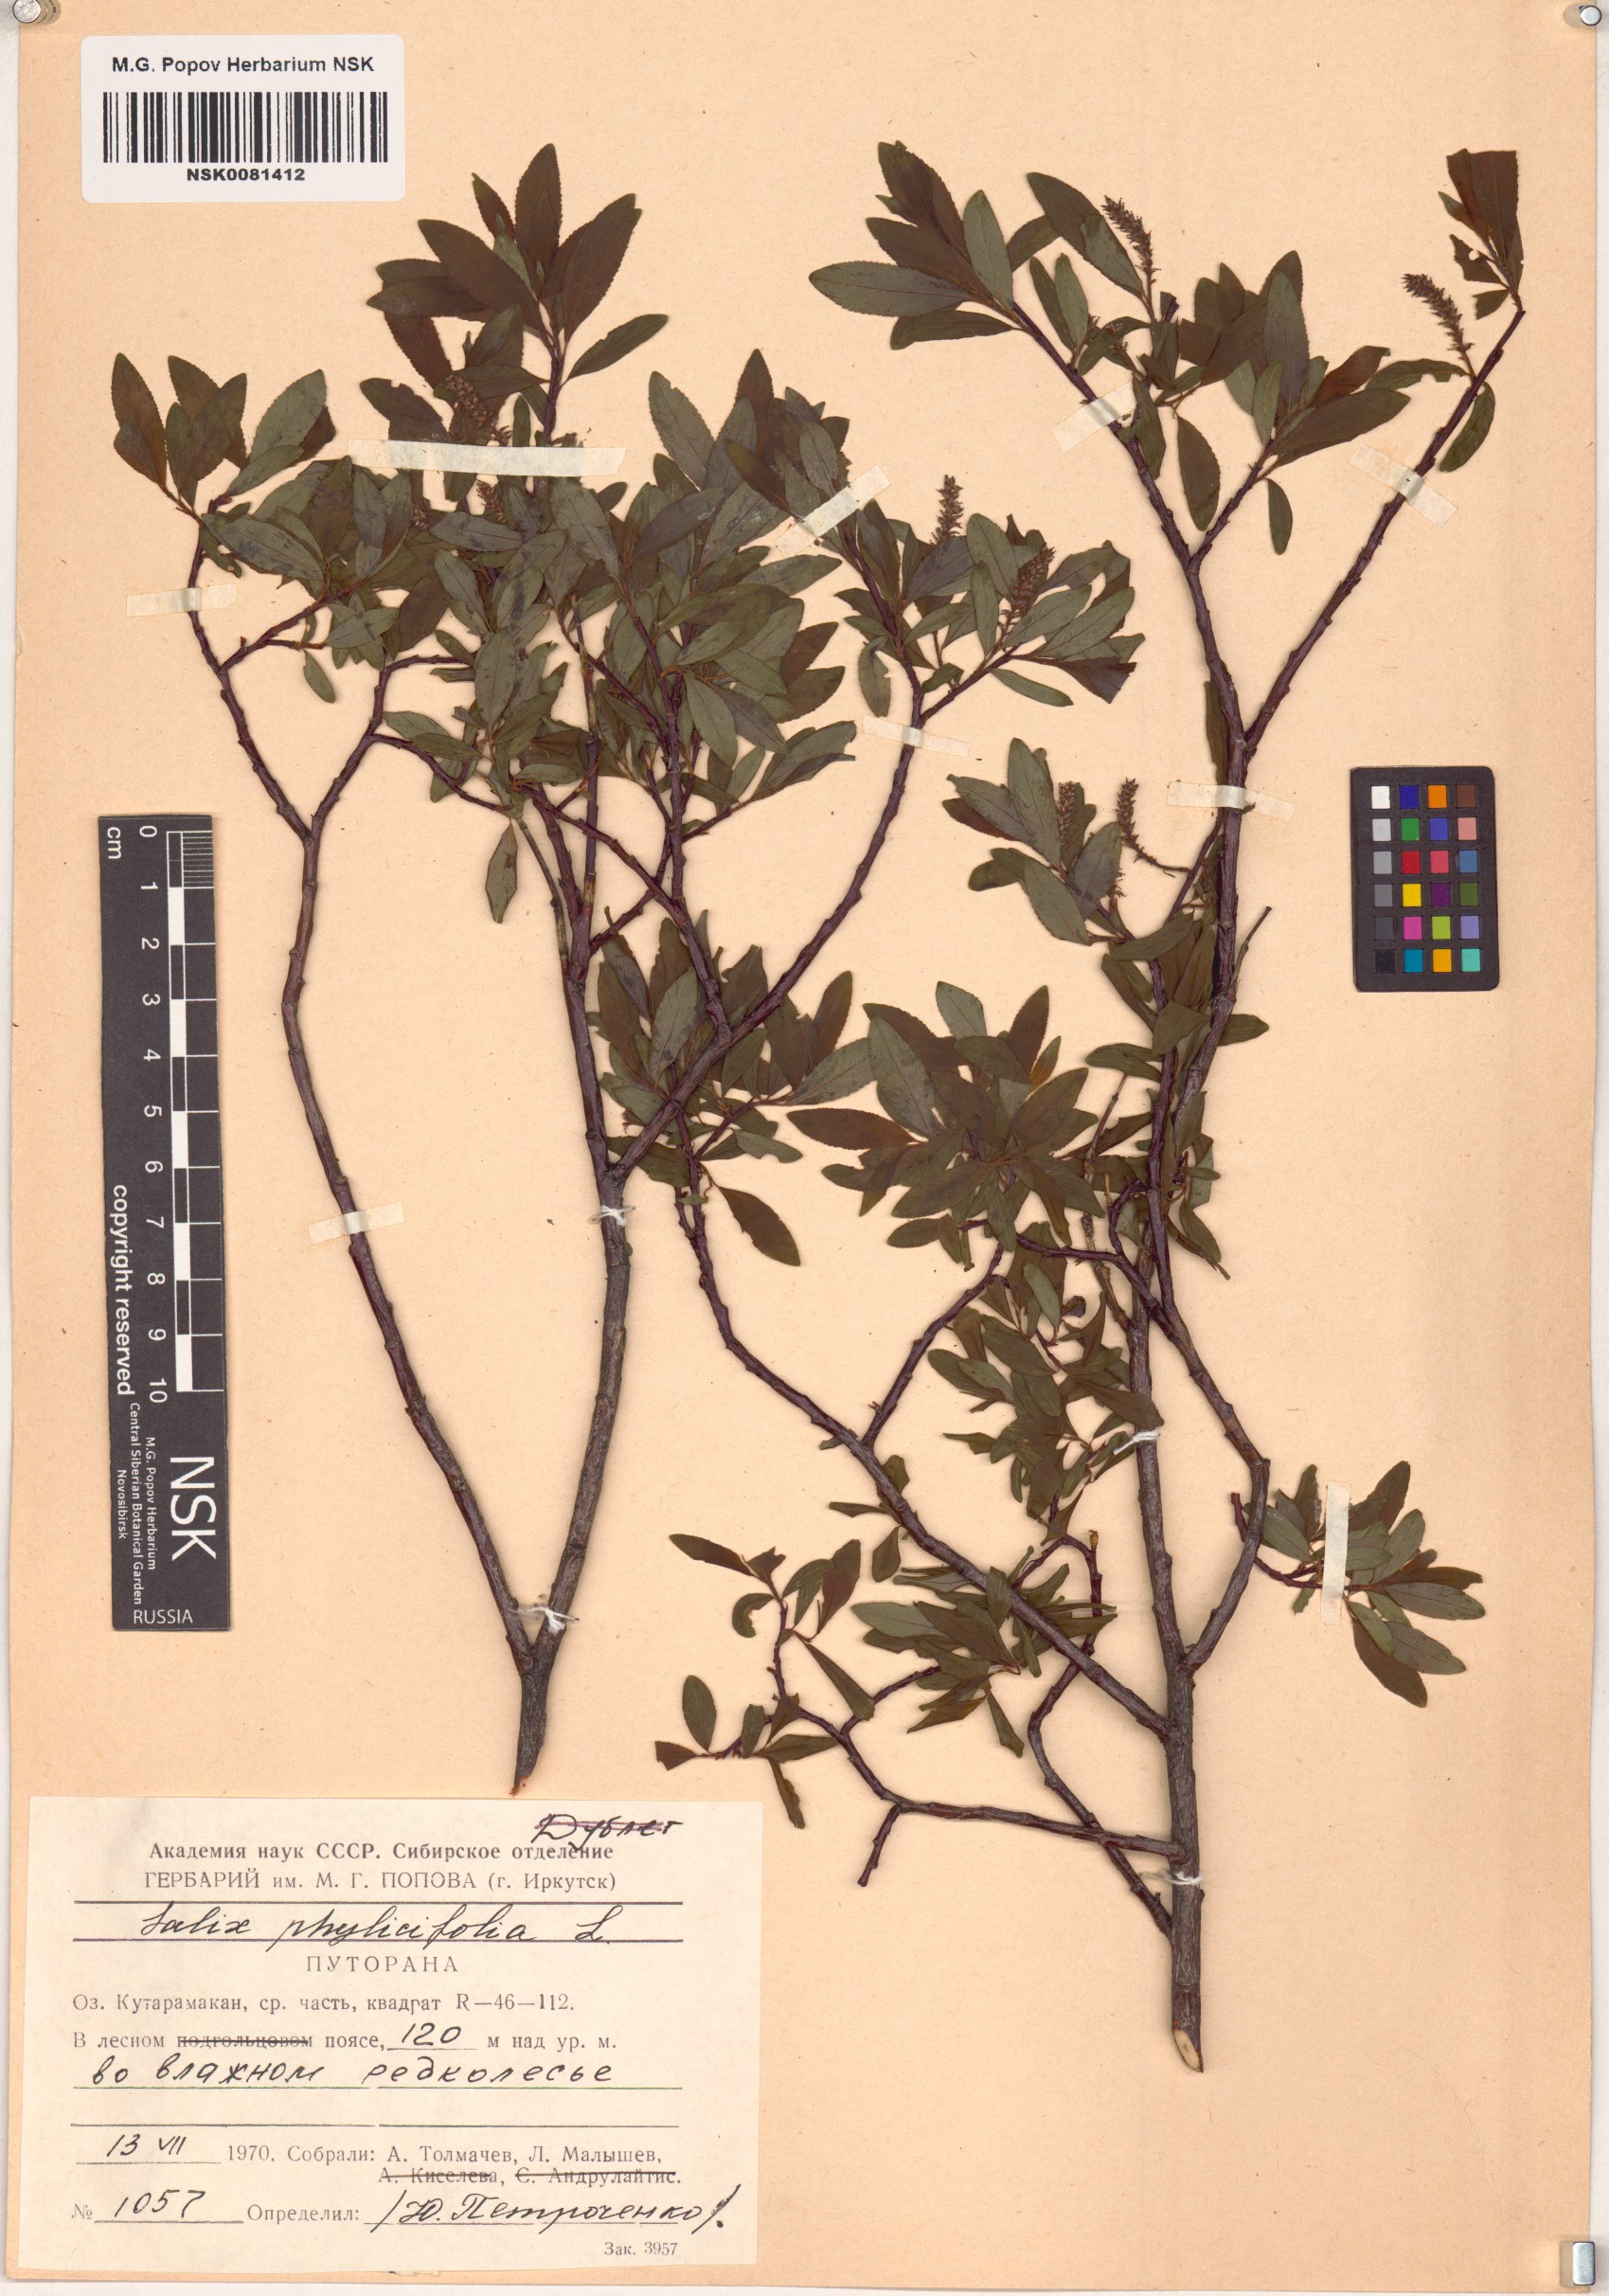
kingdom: Plantae
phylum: Tracheophyta
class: Magnoliopsida
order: Malpighiales
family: Salicaceae
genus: Salix
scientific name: Salix phylicifolia
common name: Tea-leaved willow
